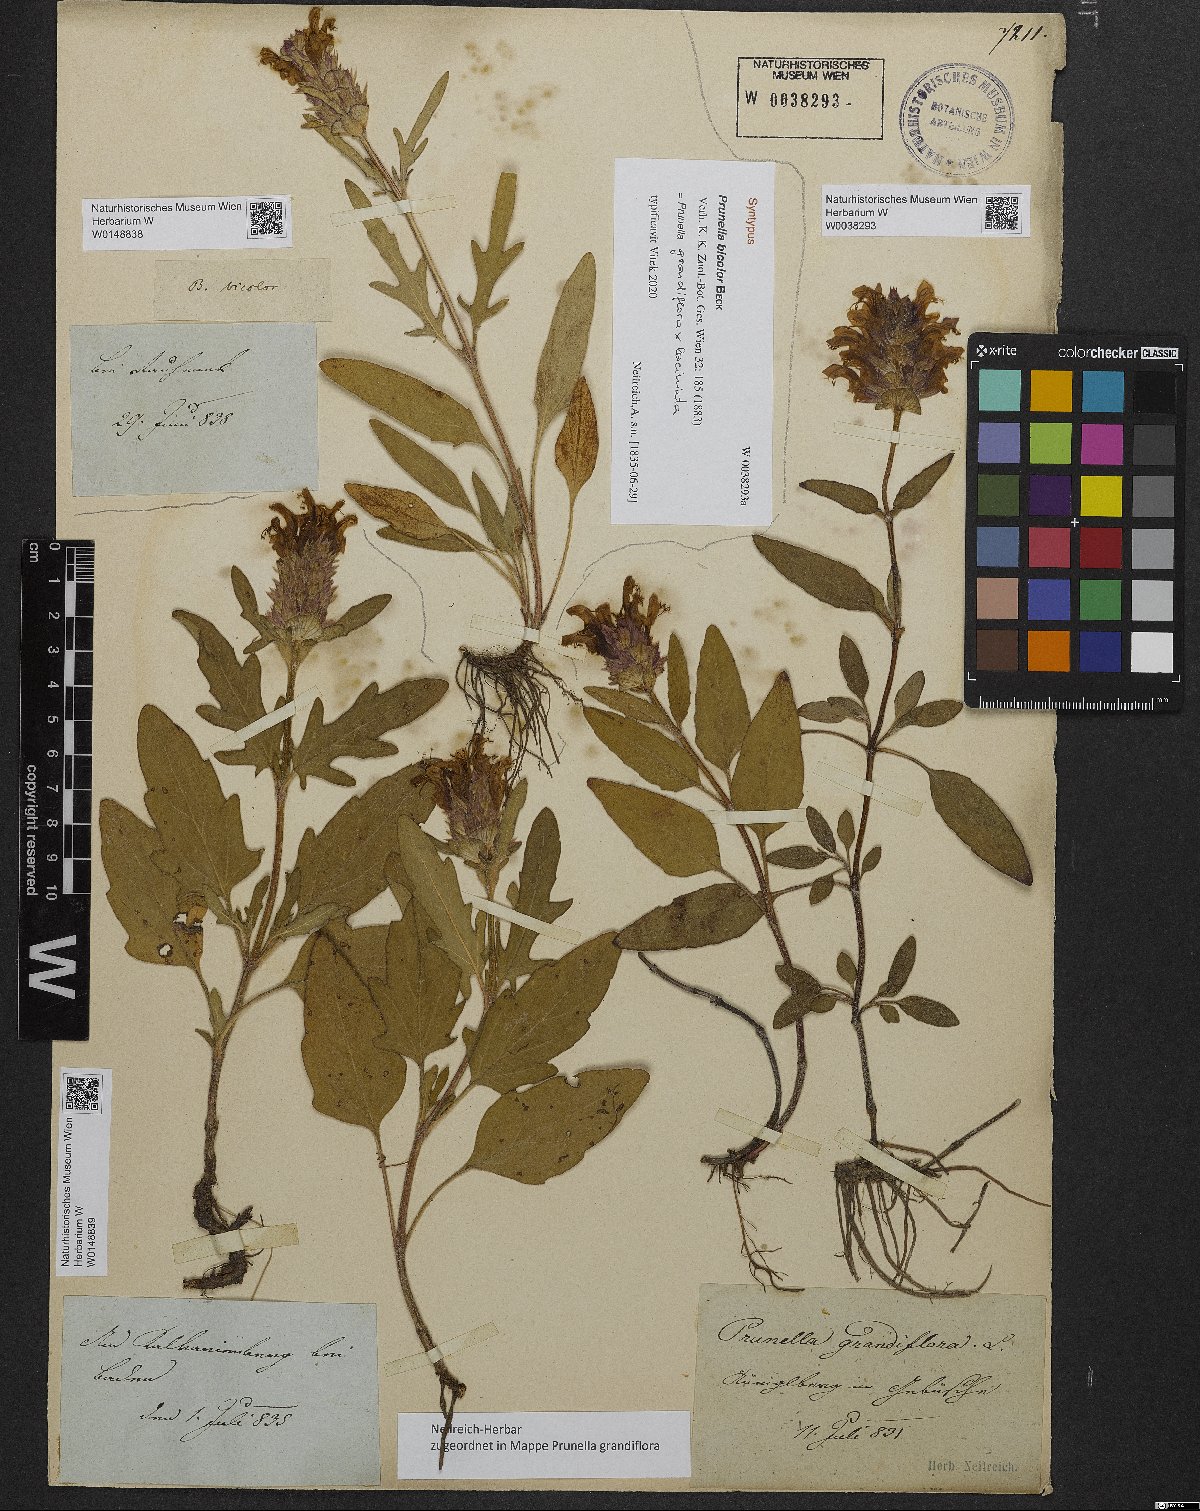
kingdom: Plantae
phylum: Tracheophyta
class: Magnoliopsida
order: Lamiales
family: Lamiaceae
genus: Prunella
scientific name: Prunella grandiflora
